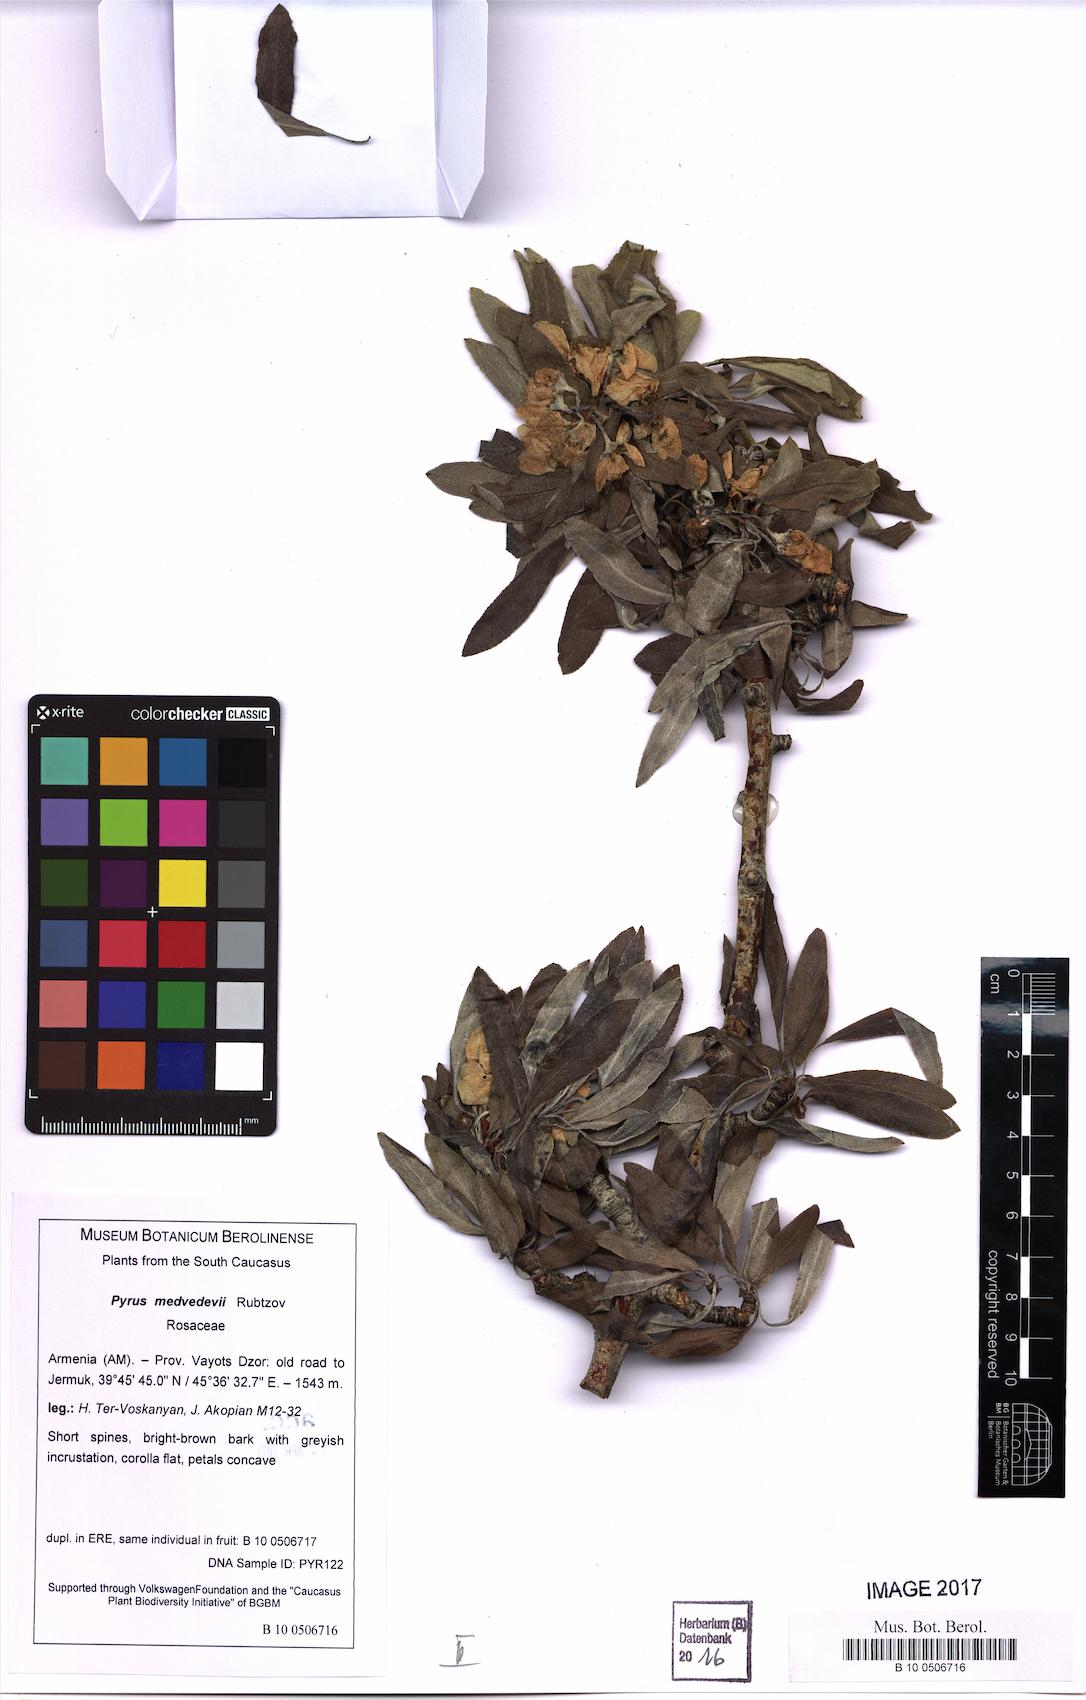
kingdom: Plantae
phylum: Tracheophyta
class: Magnoliopsida
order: Rosales
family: Rosaceae
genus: Pyrus
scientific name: Pyrus medvedevii
